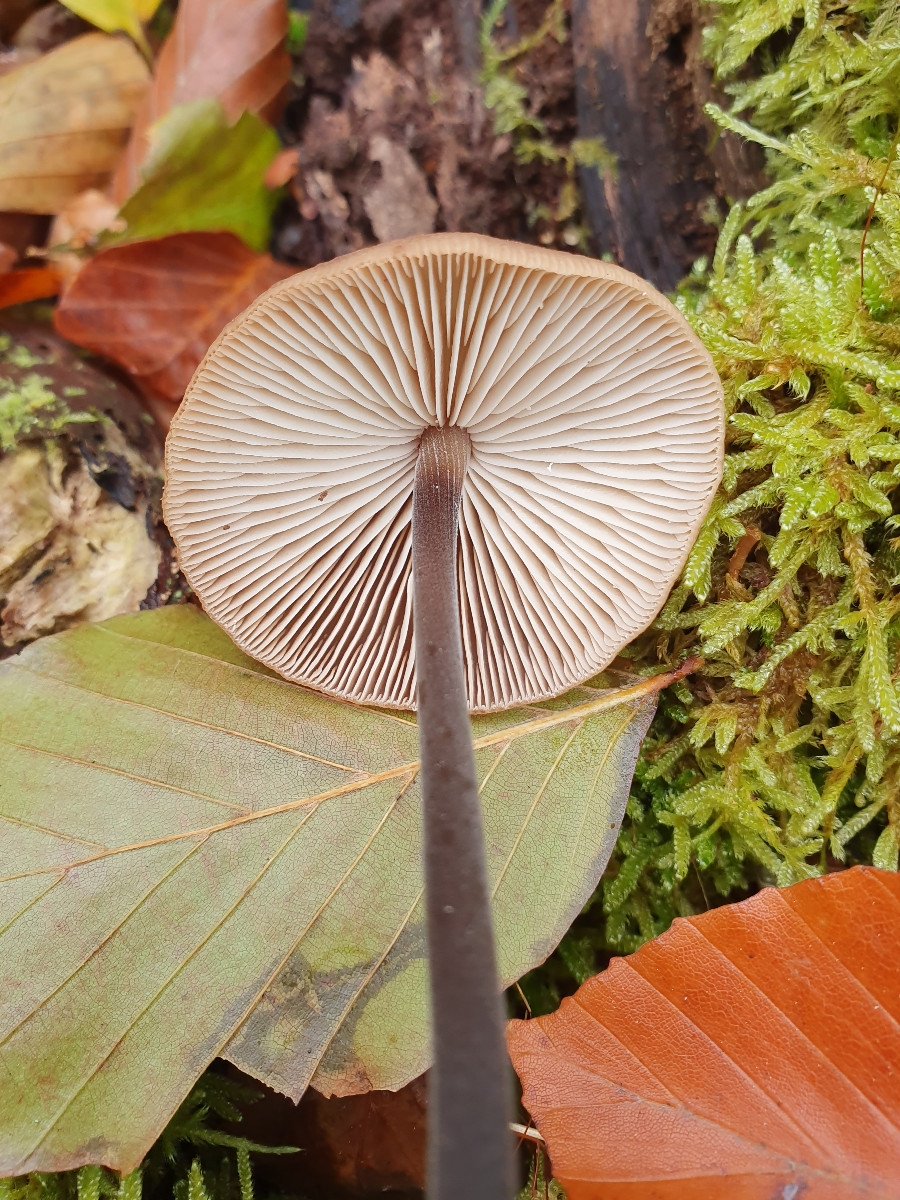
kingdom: Fungi
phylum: Basidiomycota
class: Agaricomycetes
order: Agaricales
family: Omphalotaceae
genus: Mycetinis
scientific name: Mycetinis alliaceus
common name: stor løghat
